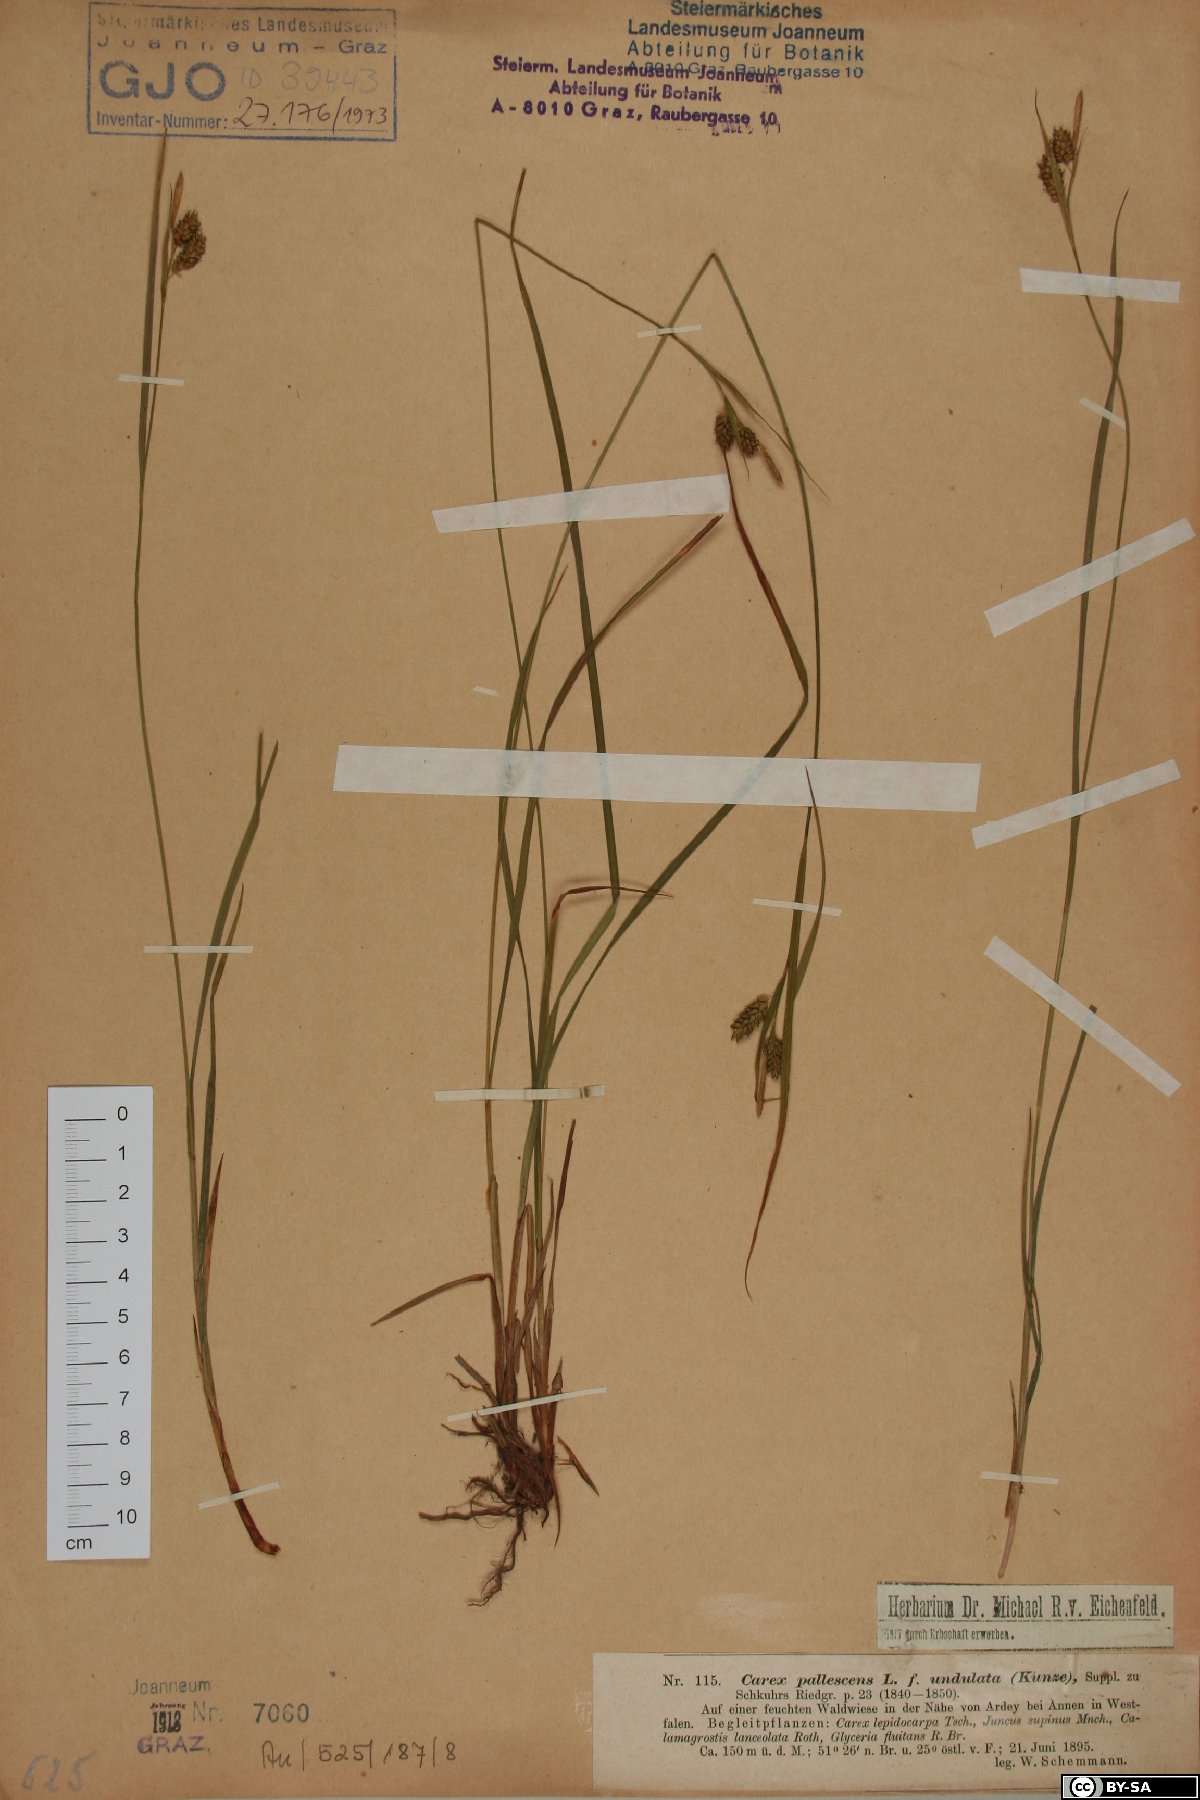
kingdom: Plantae
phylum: Tracheophyta
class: Liliopsida
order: Poales
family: Cyperaceae
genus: Carex
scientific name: Carex pallescens
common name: Pale sedge
